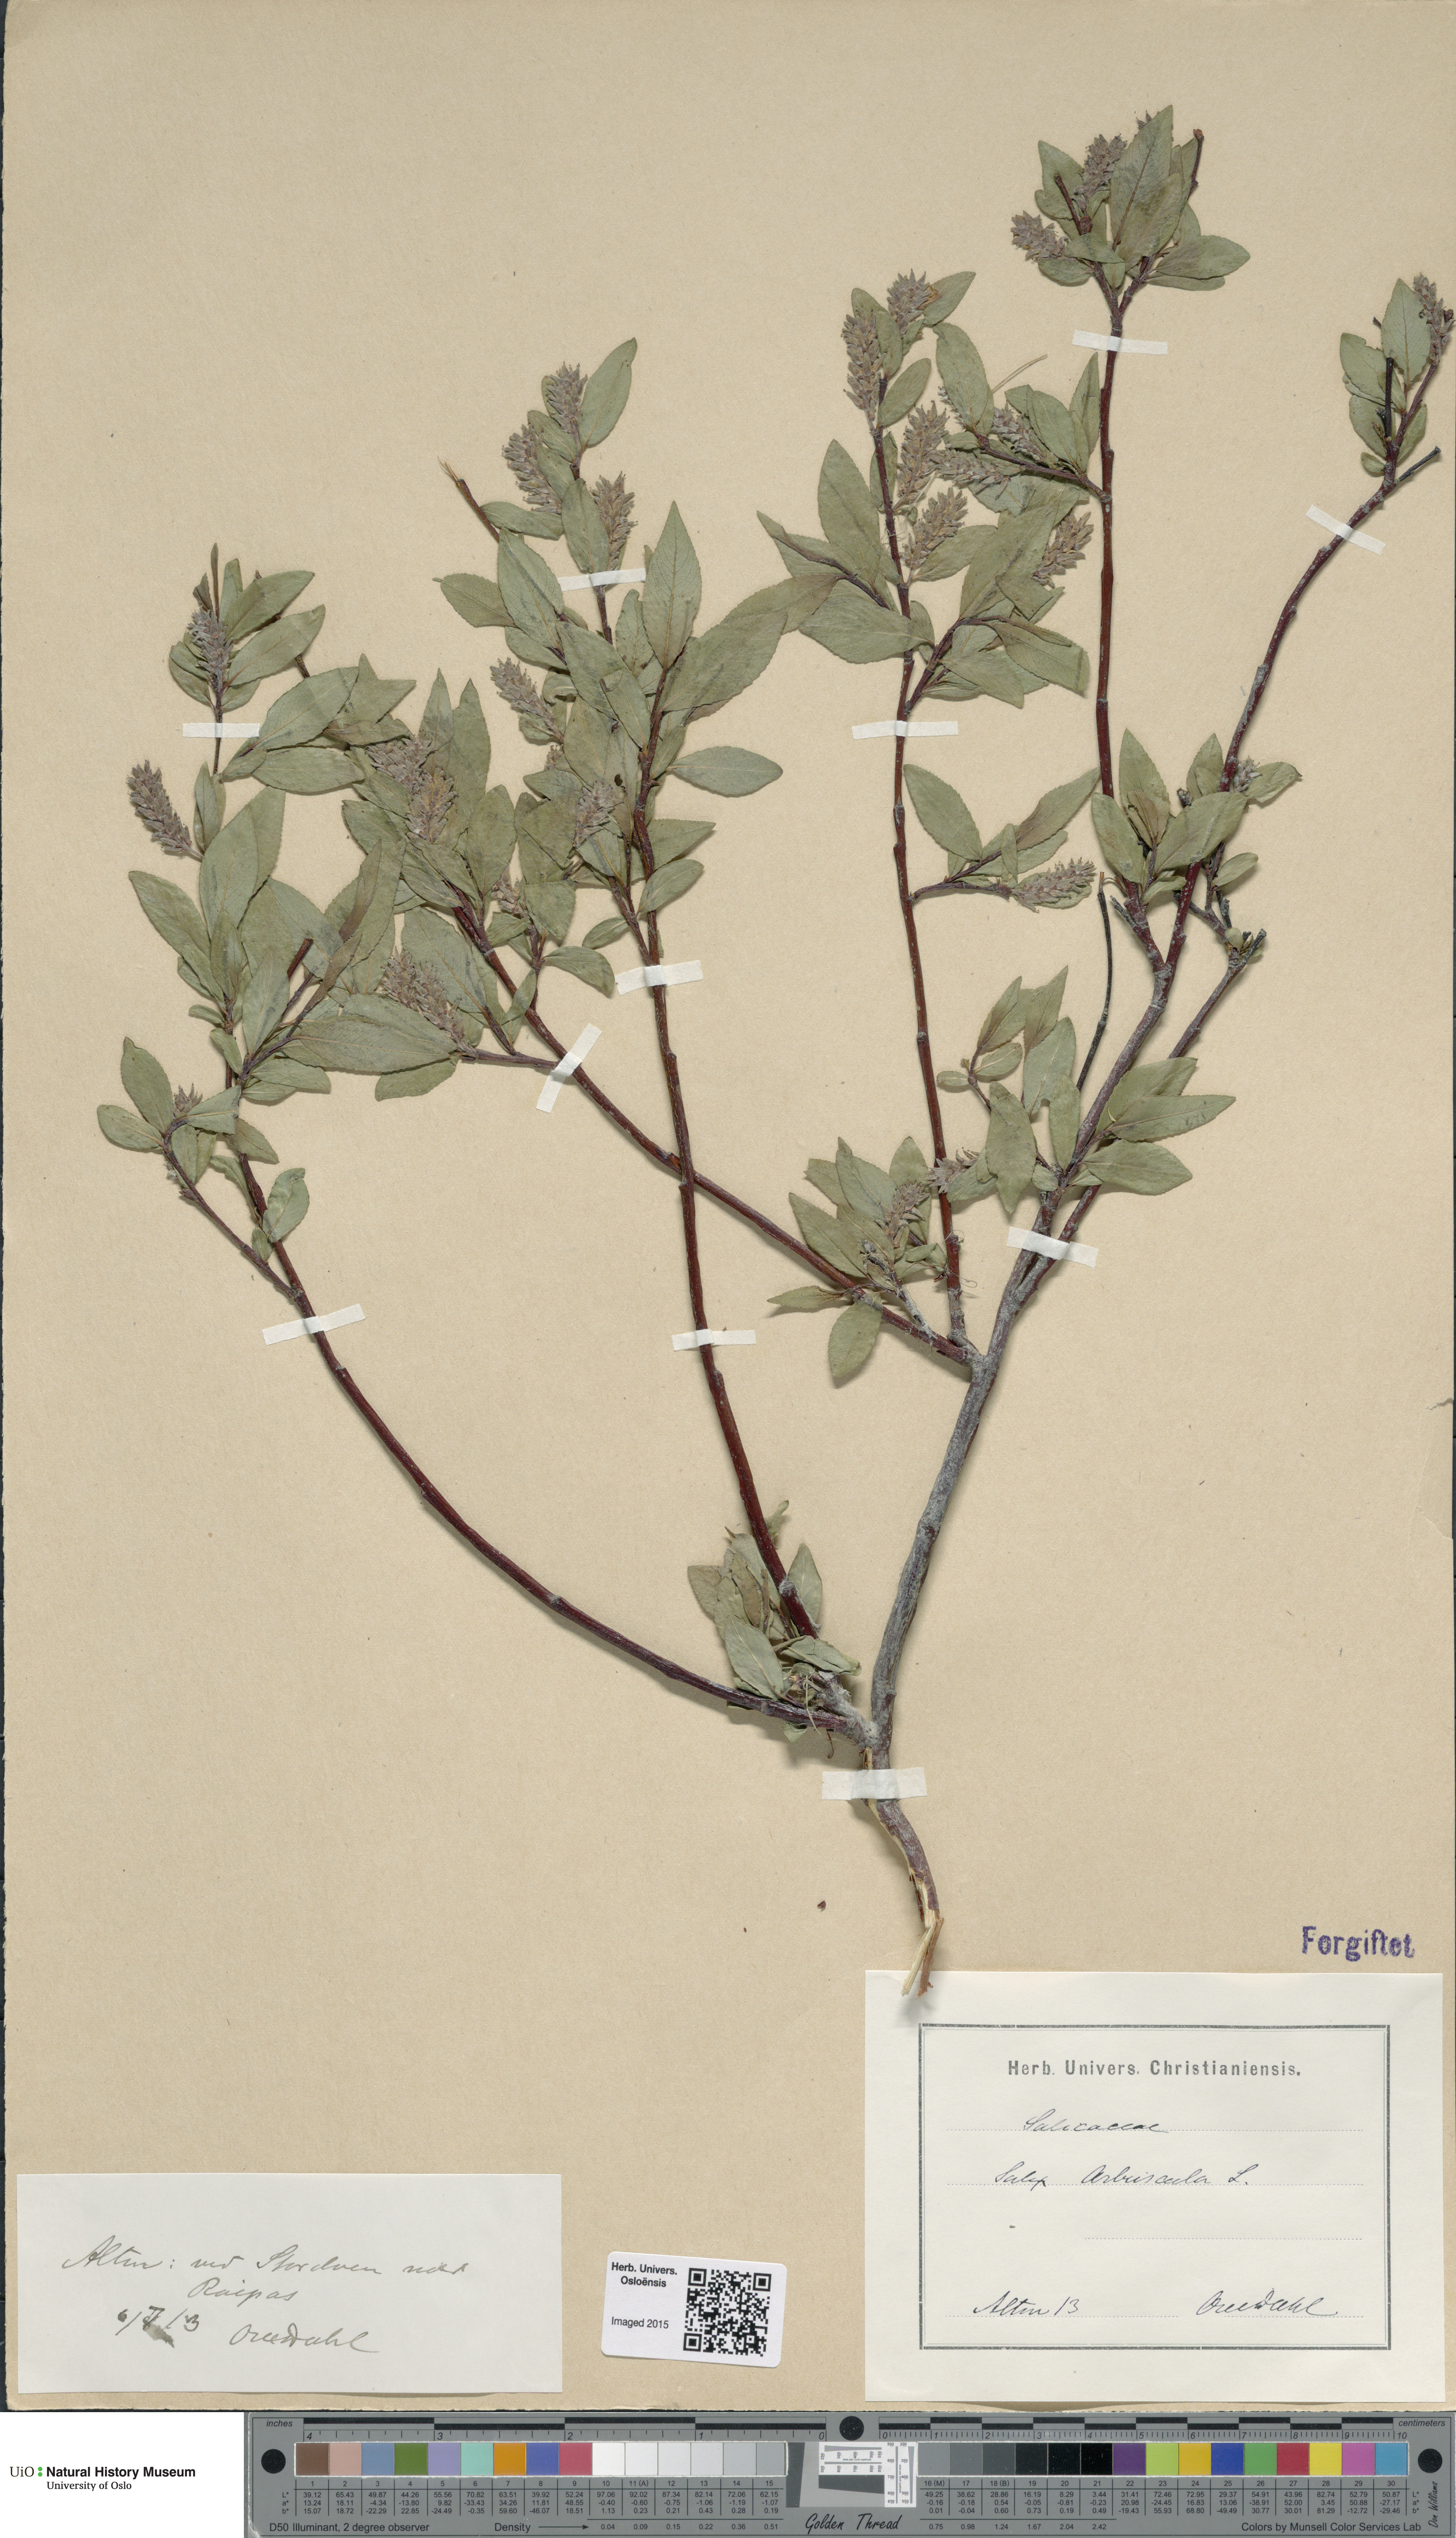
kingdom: Plantae
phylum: Tracheophyta
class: Magnoliopsida
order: Malpighiales
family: Salicaceae
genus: Salix
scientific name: Salix arbuscula
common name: Mountain willow
